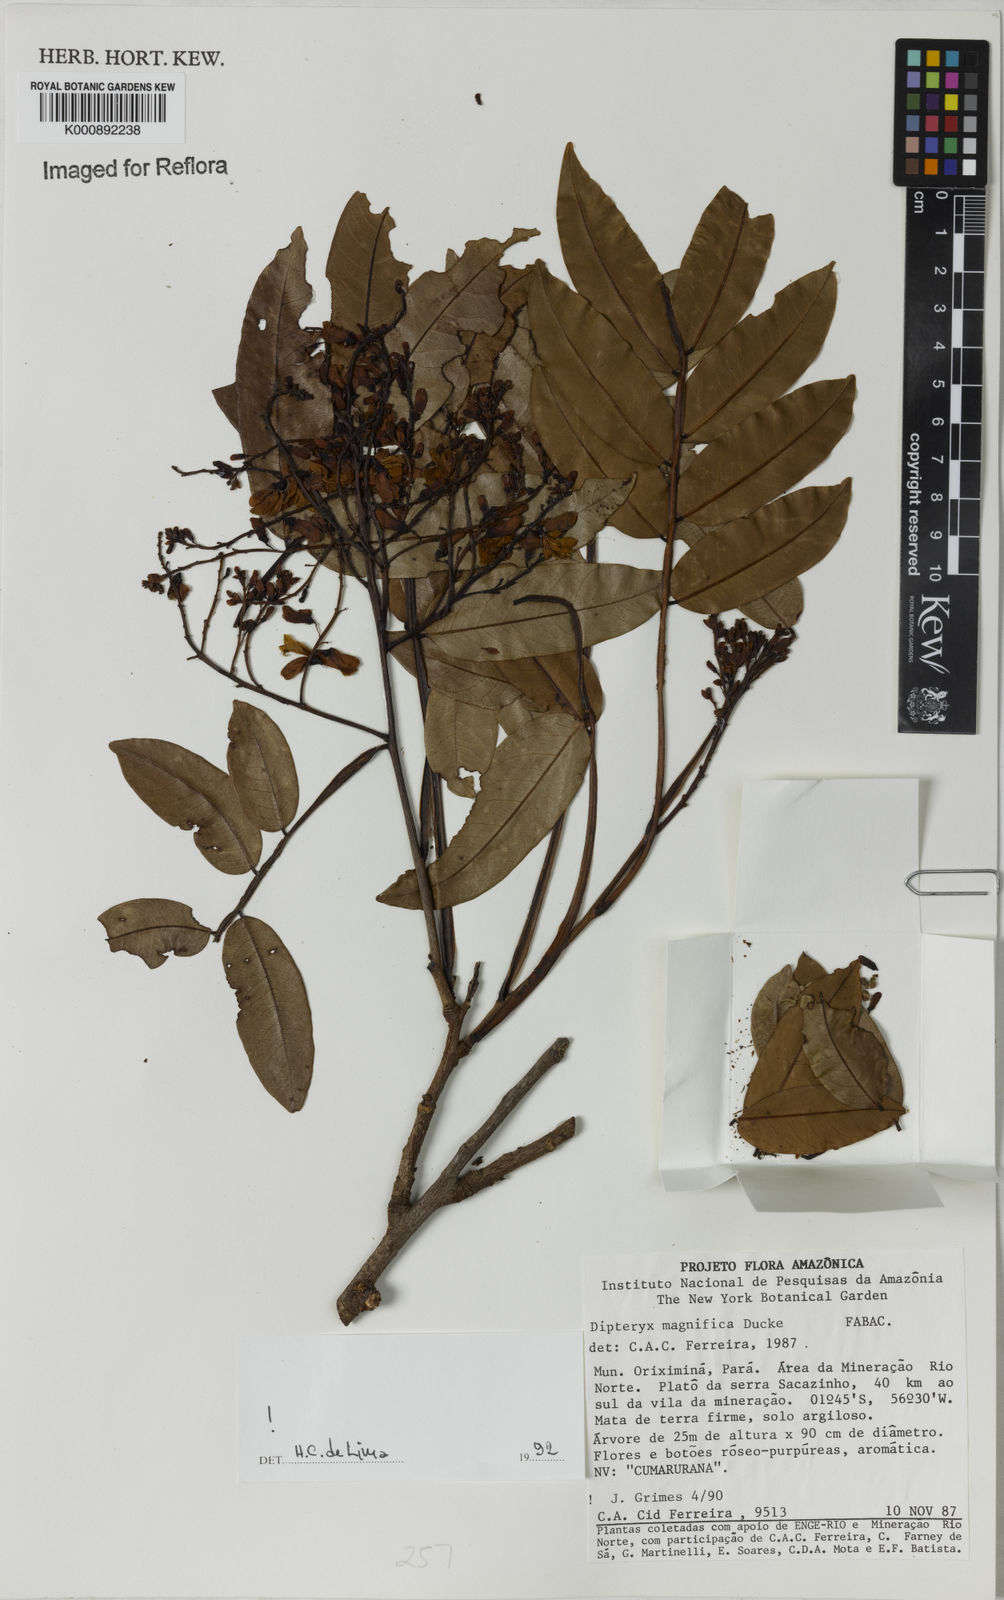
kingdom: Plantae
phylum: Tracheophyta
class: Magnoliopsida
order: Fabales
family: Fabaceae
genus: Dipteryx
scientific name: Dipteryx magnifica
